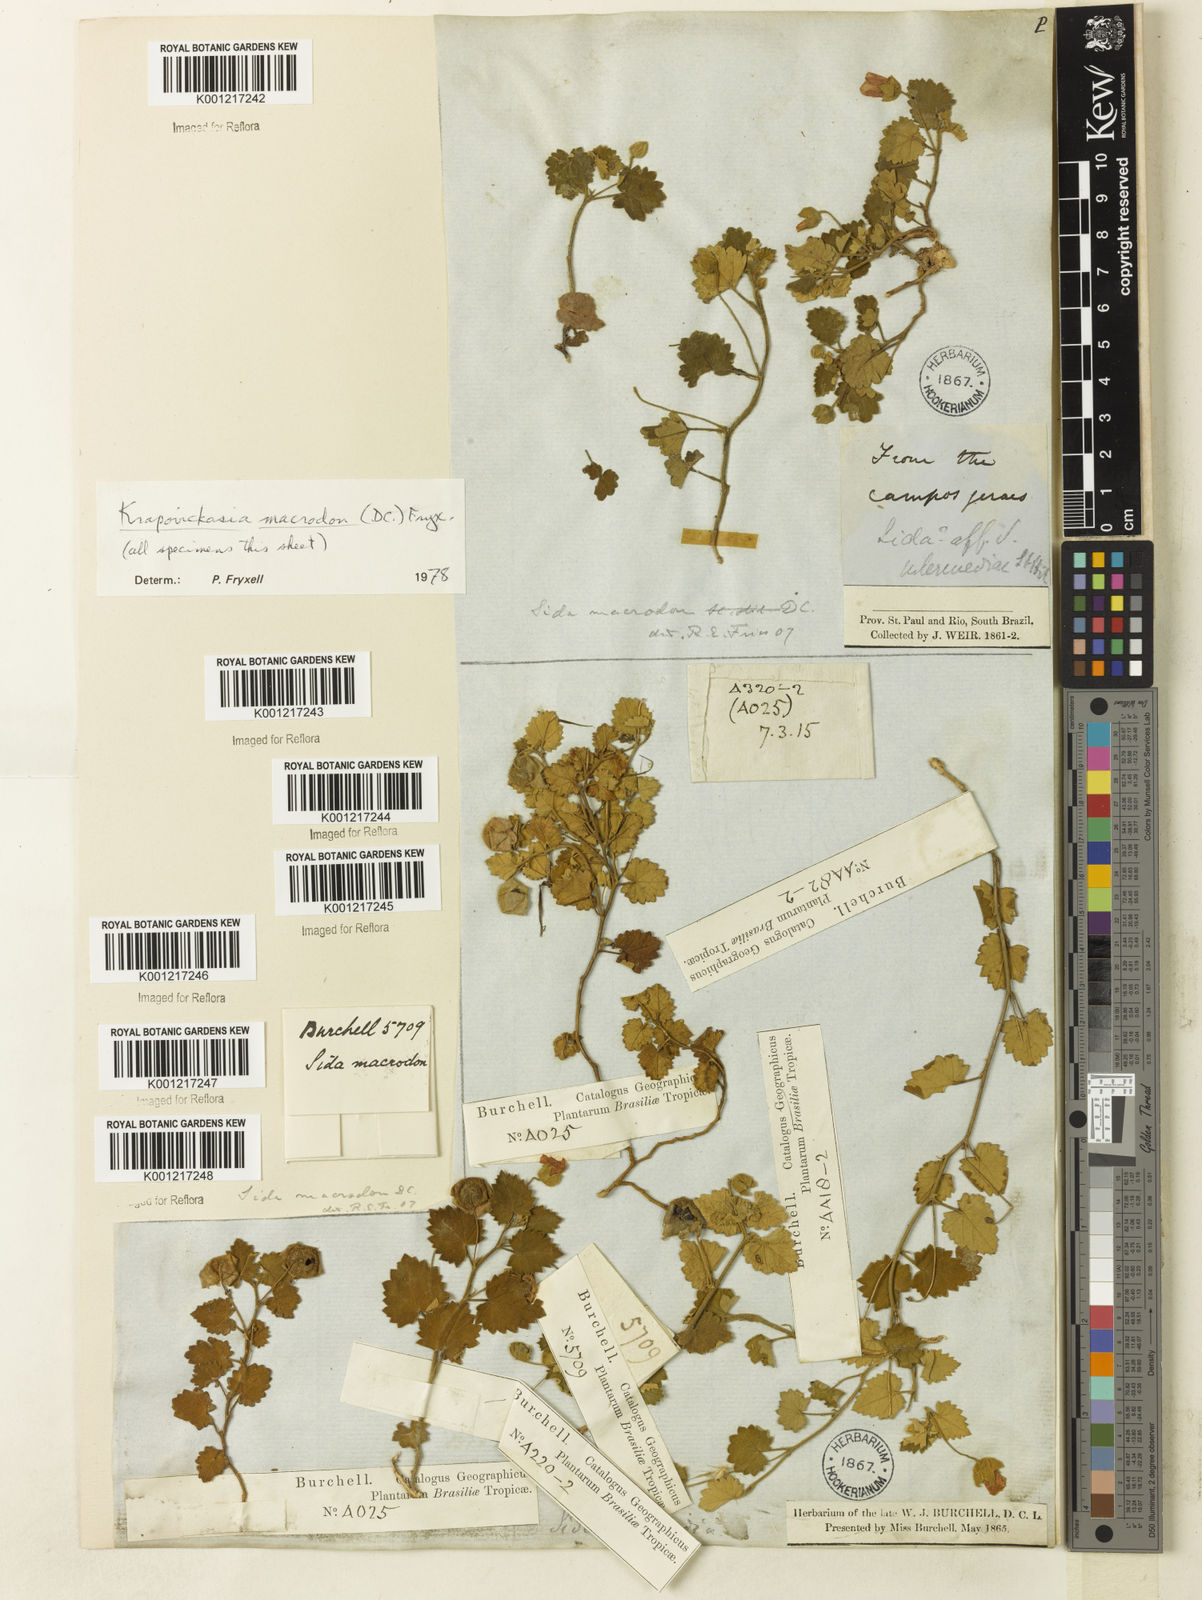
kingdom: Plantae
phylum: Tracheophyta
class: Magnoliopsida
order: Malvales
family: Malvaceae
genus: Krapovickasia
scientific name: Krapovickasia macrodon
